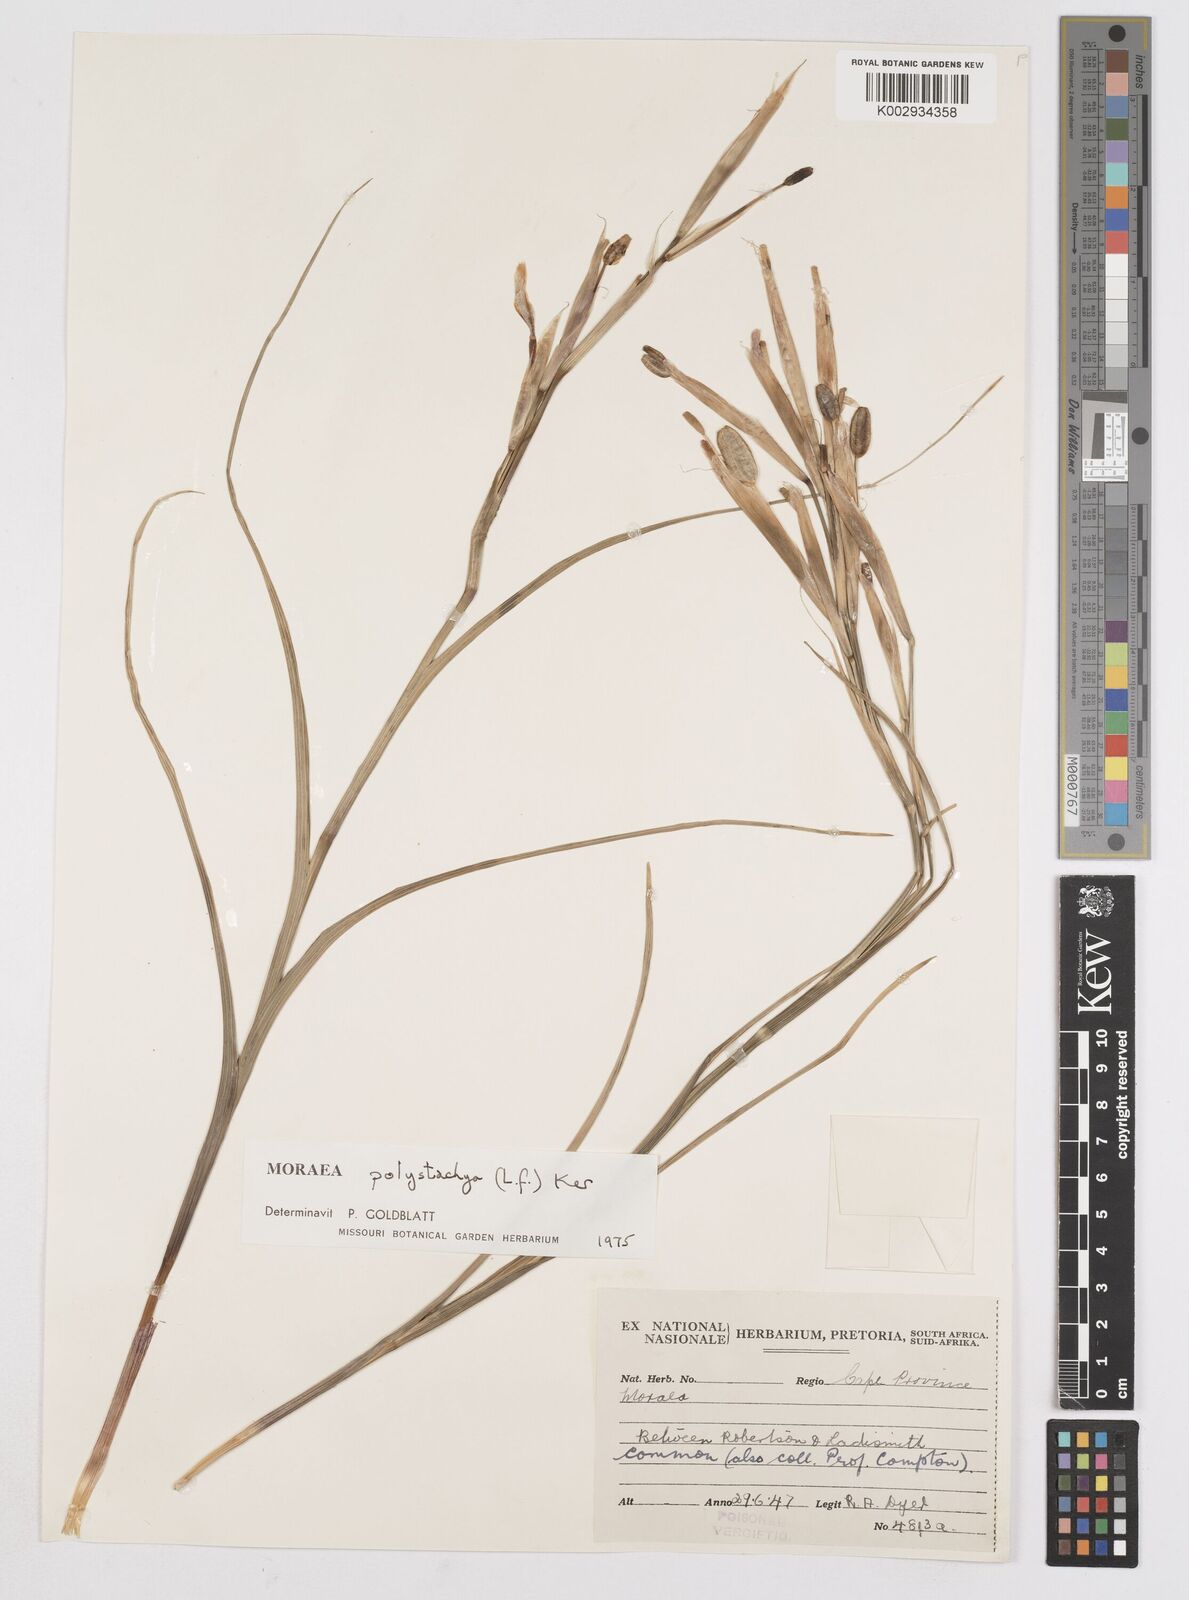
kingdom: Plantae
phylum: Tracheophyta
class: Liliopsida
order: Asparagales
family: Iridaceae
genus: Moraea
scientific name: Moraea polystachya
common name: Blue-tulip
